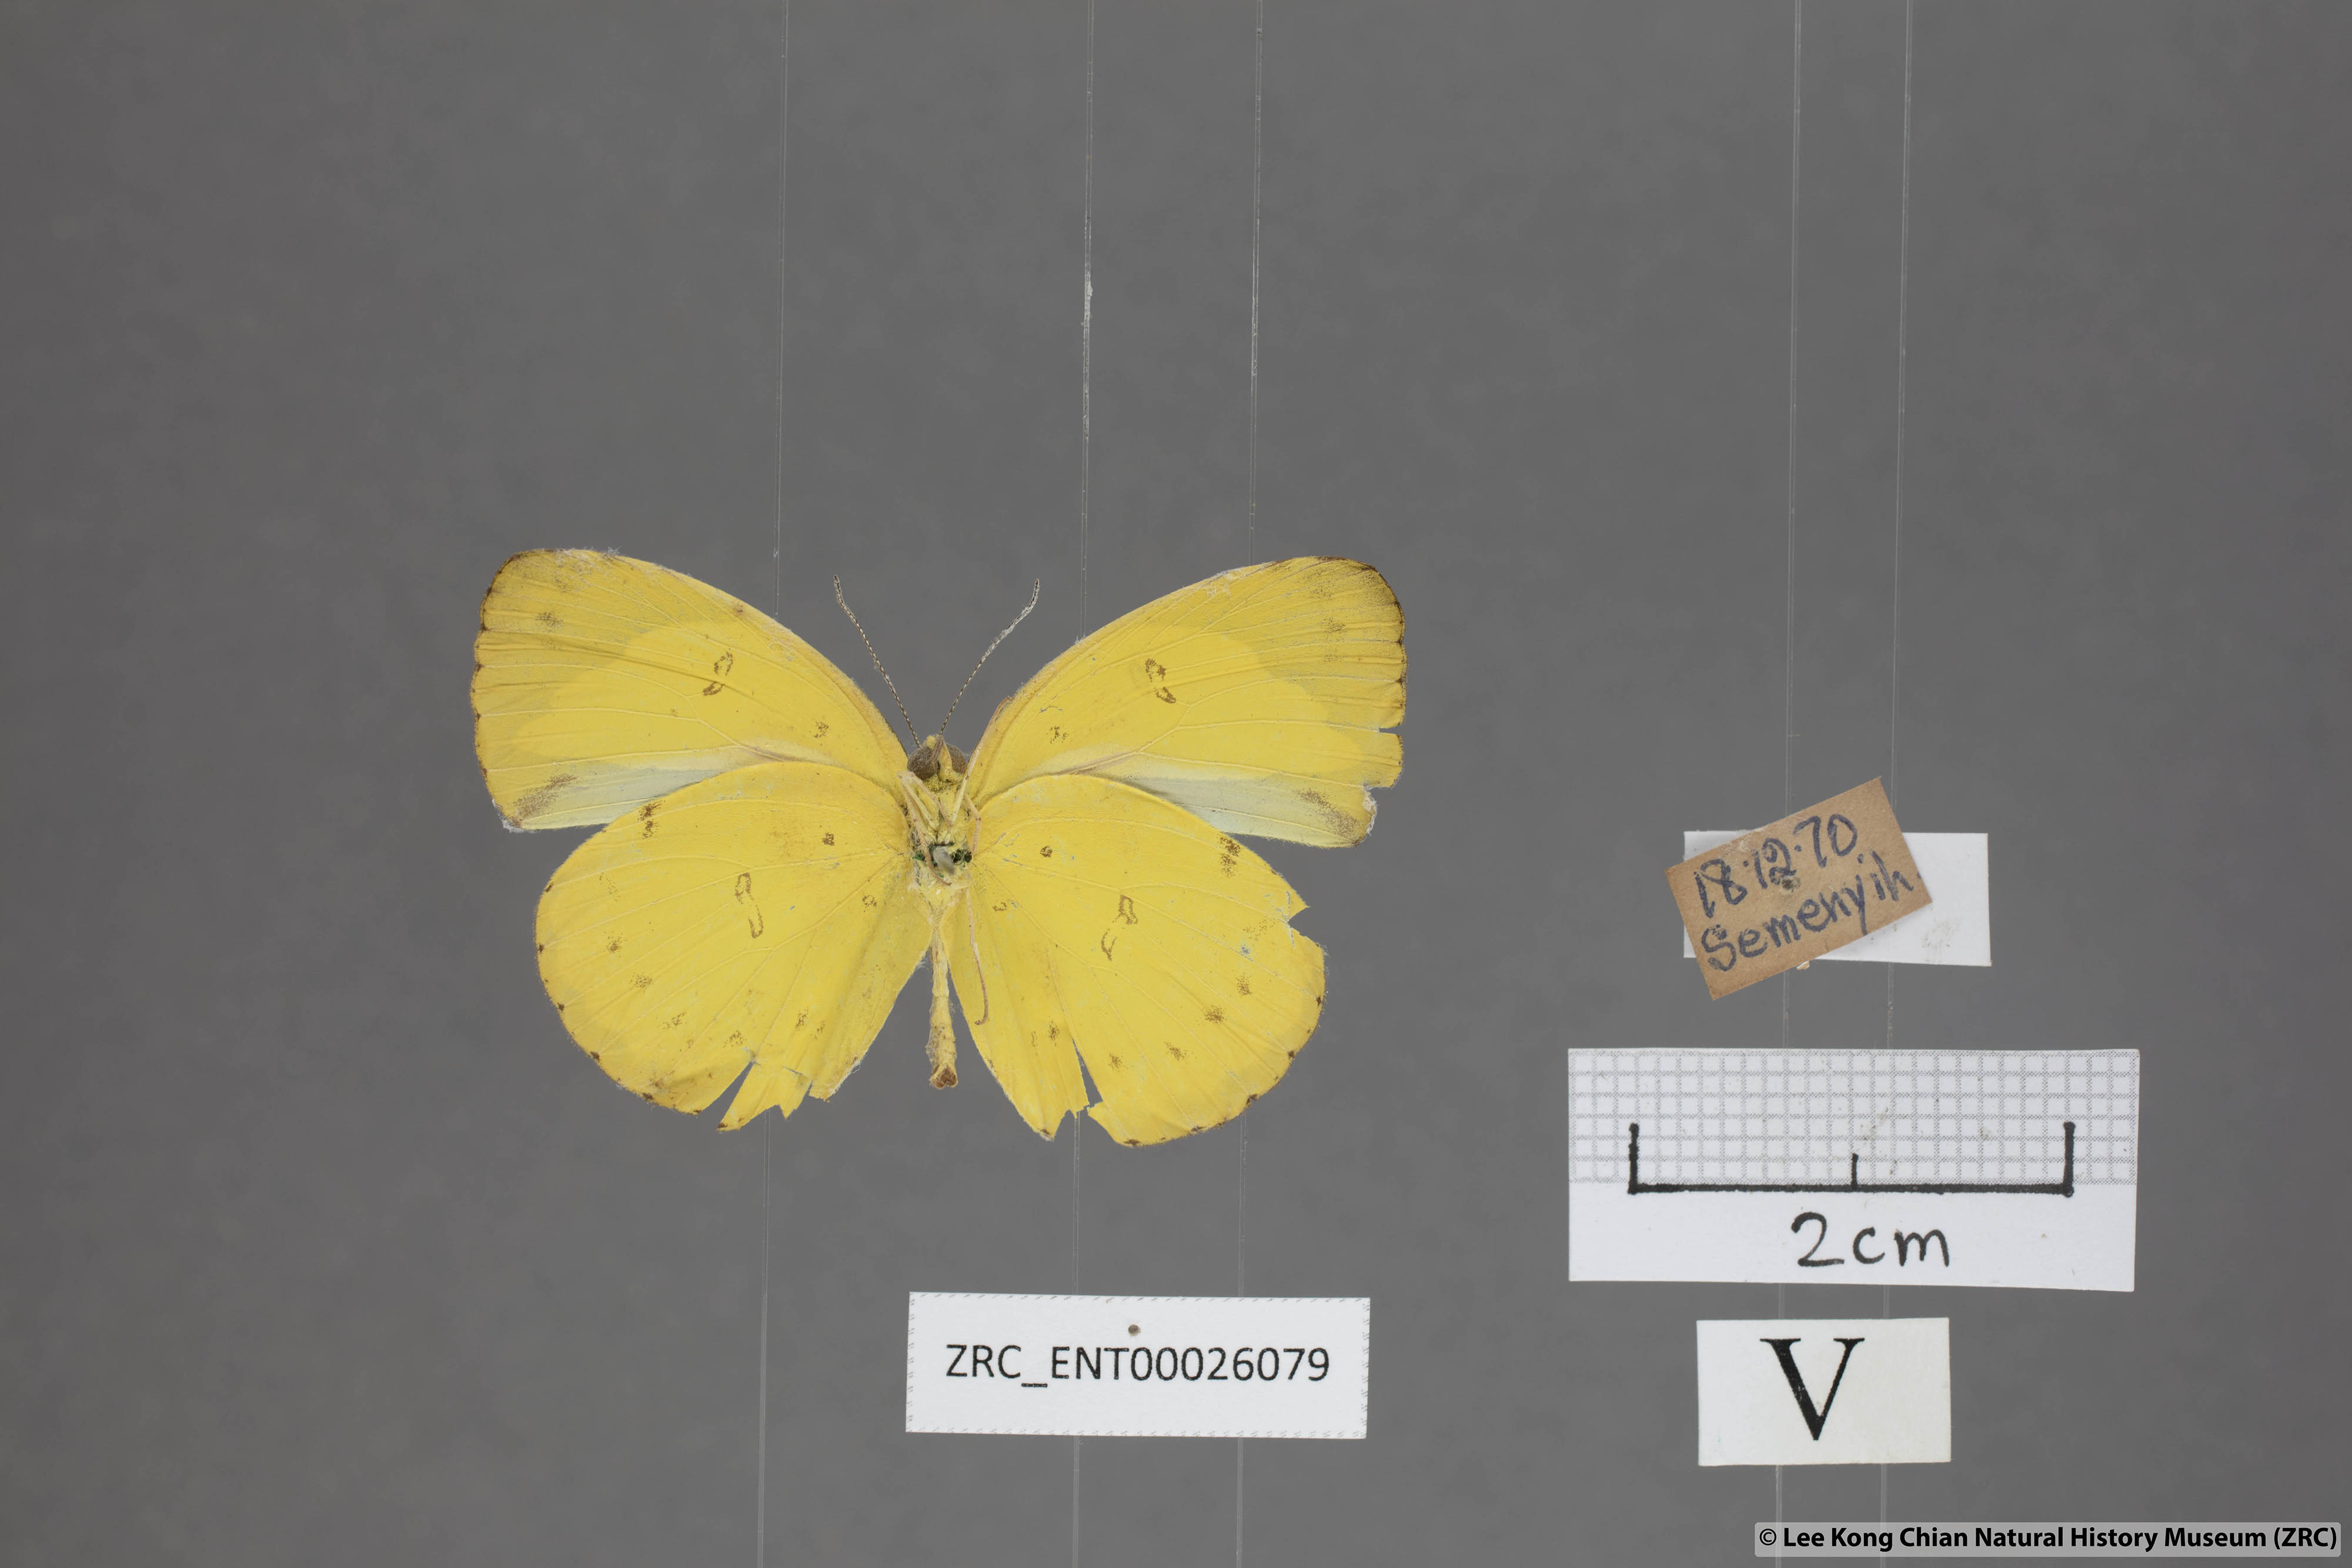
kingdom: Animalia
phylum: Arthropoda
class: Insecta
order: Lepidoptera
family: Pieridae
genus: Eurema
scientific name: Eurema nicevillei
